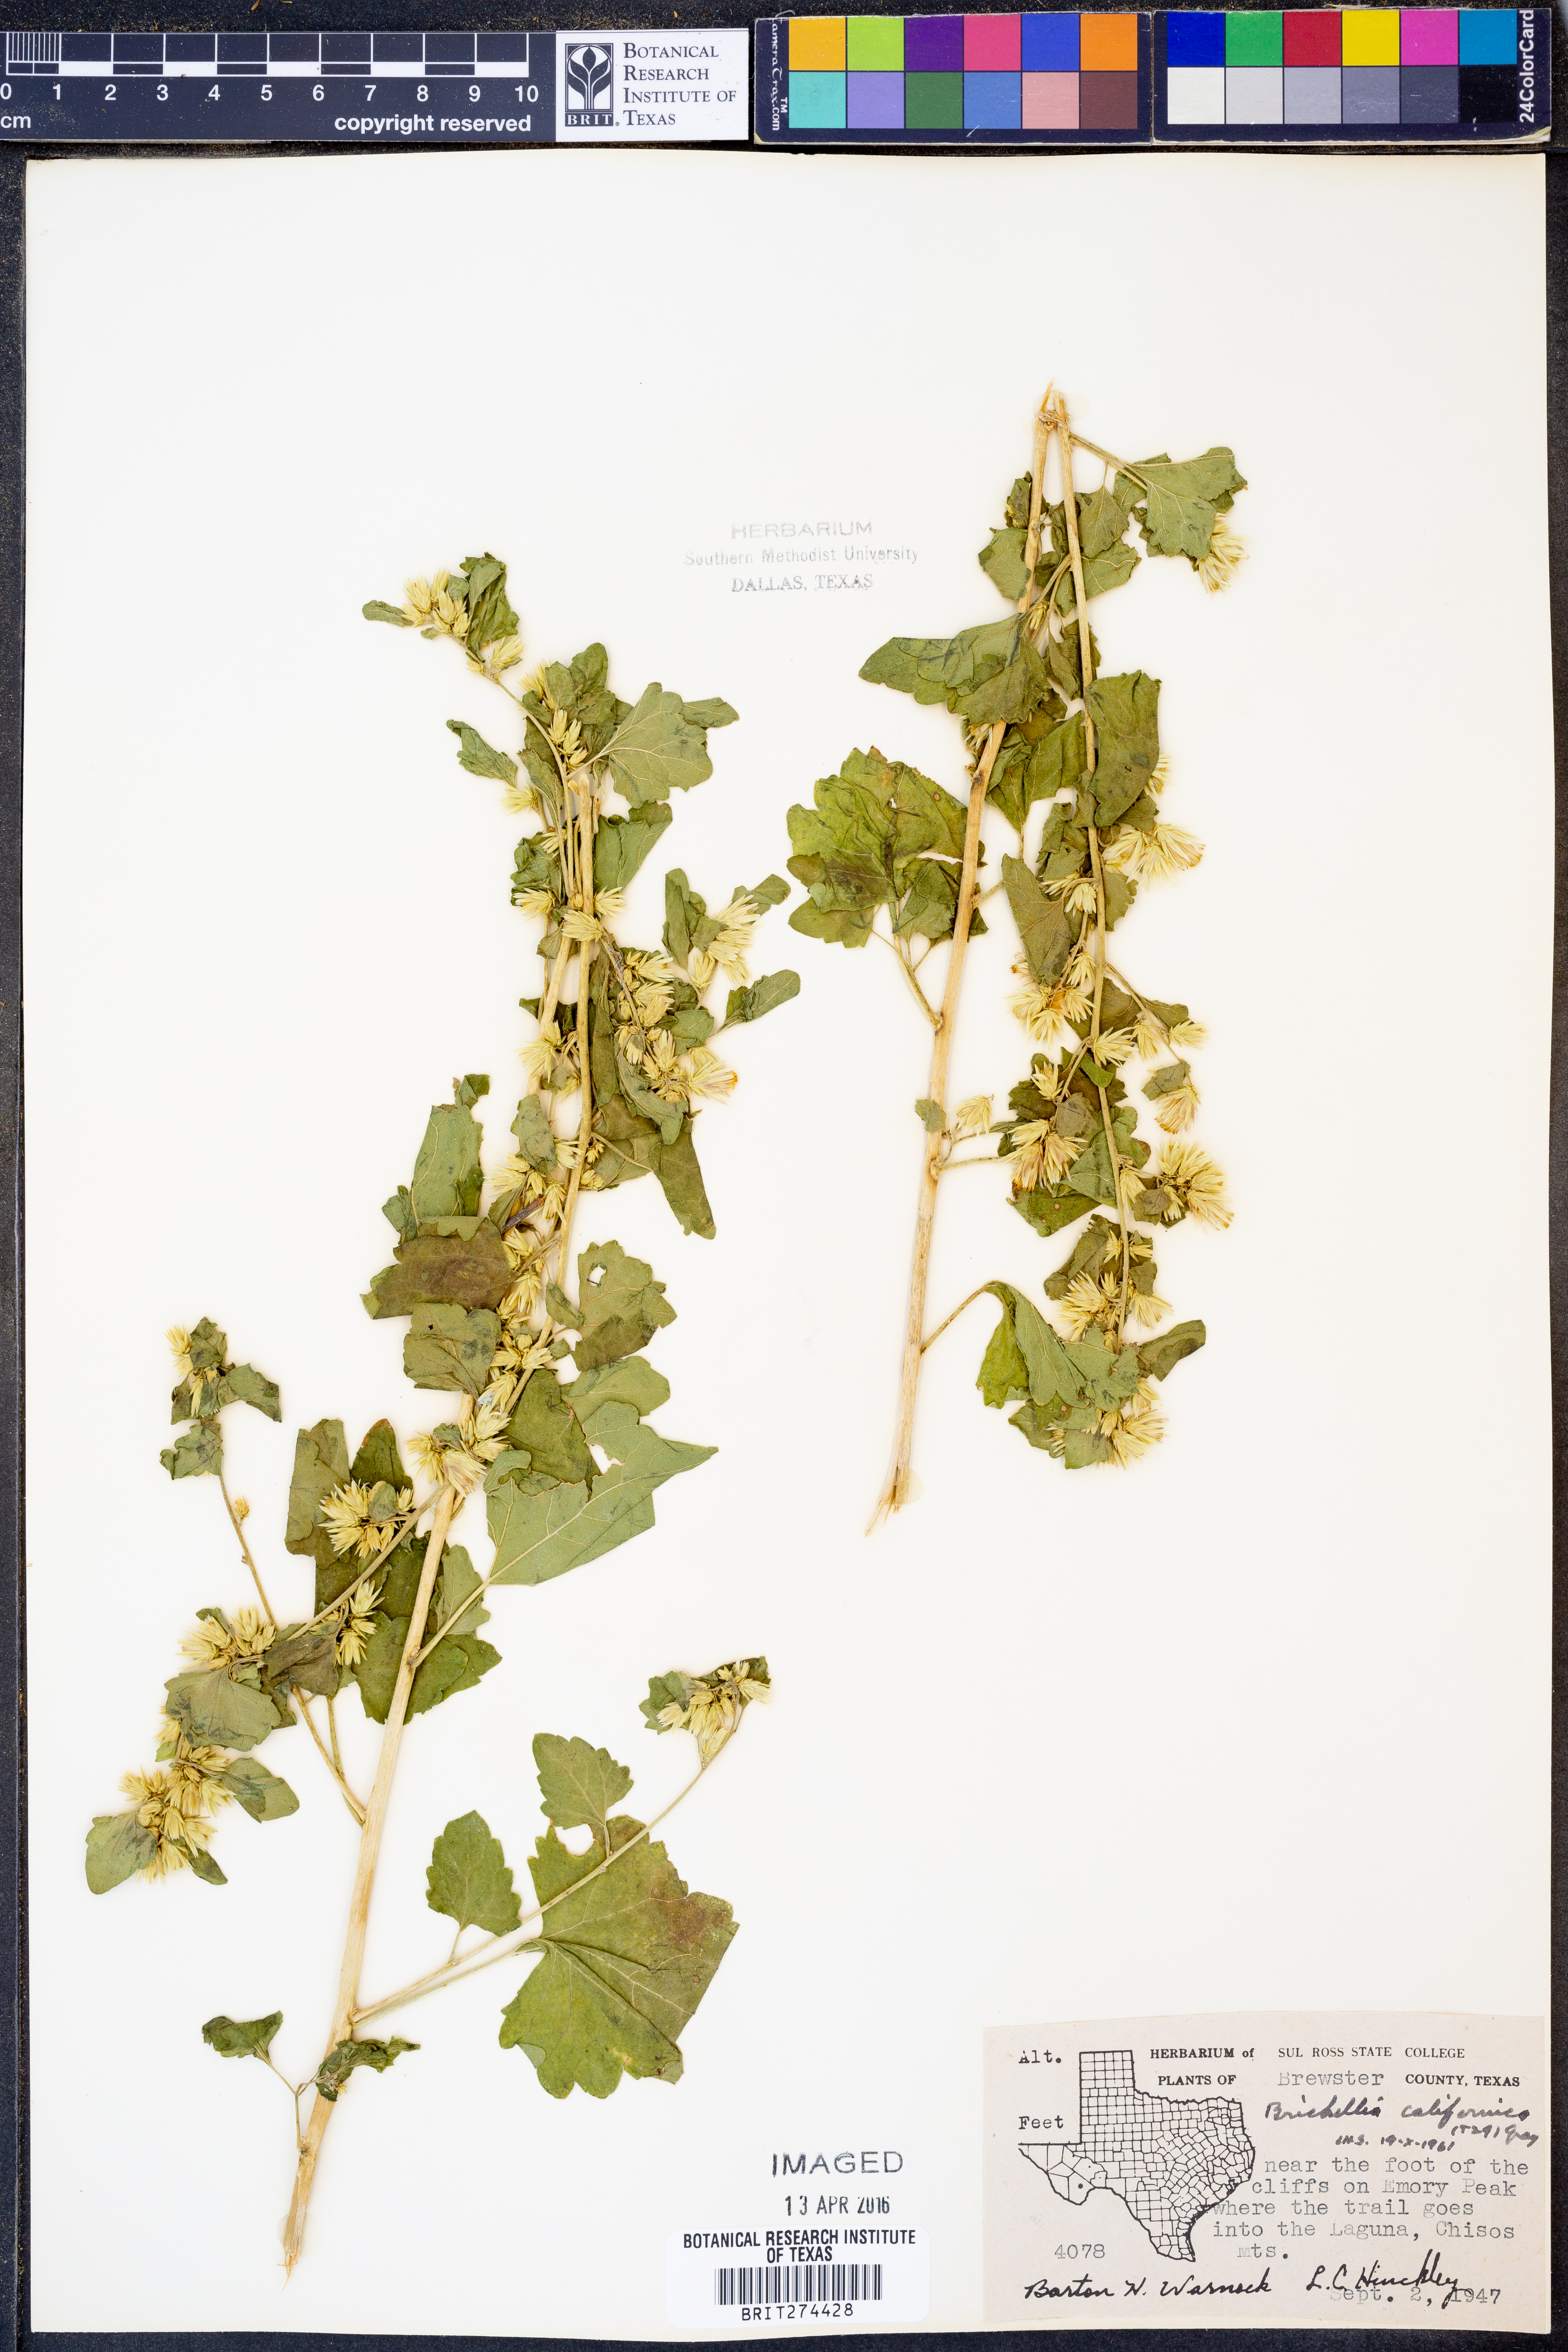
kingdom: Plantae
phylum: Tracheophyta
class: Magnoliopsida
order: Asterales
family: Asteraceae
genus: Brickellia
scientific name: Brickellia californica
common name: California brickellbush
